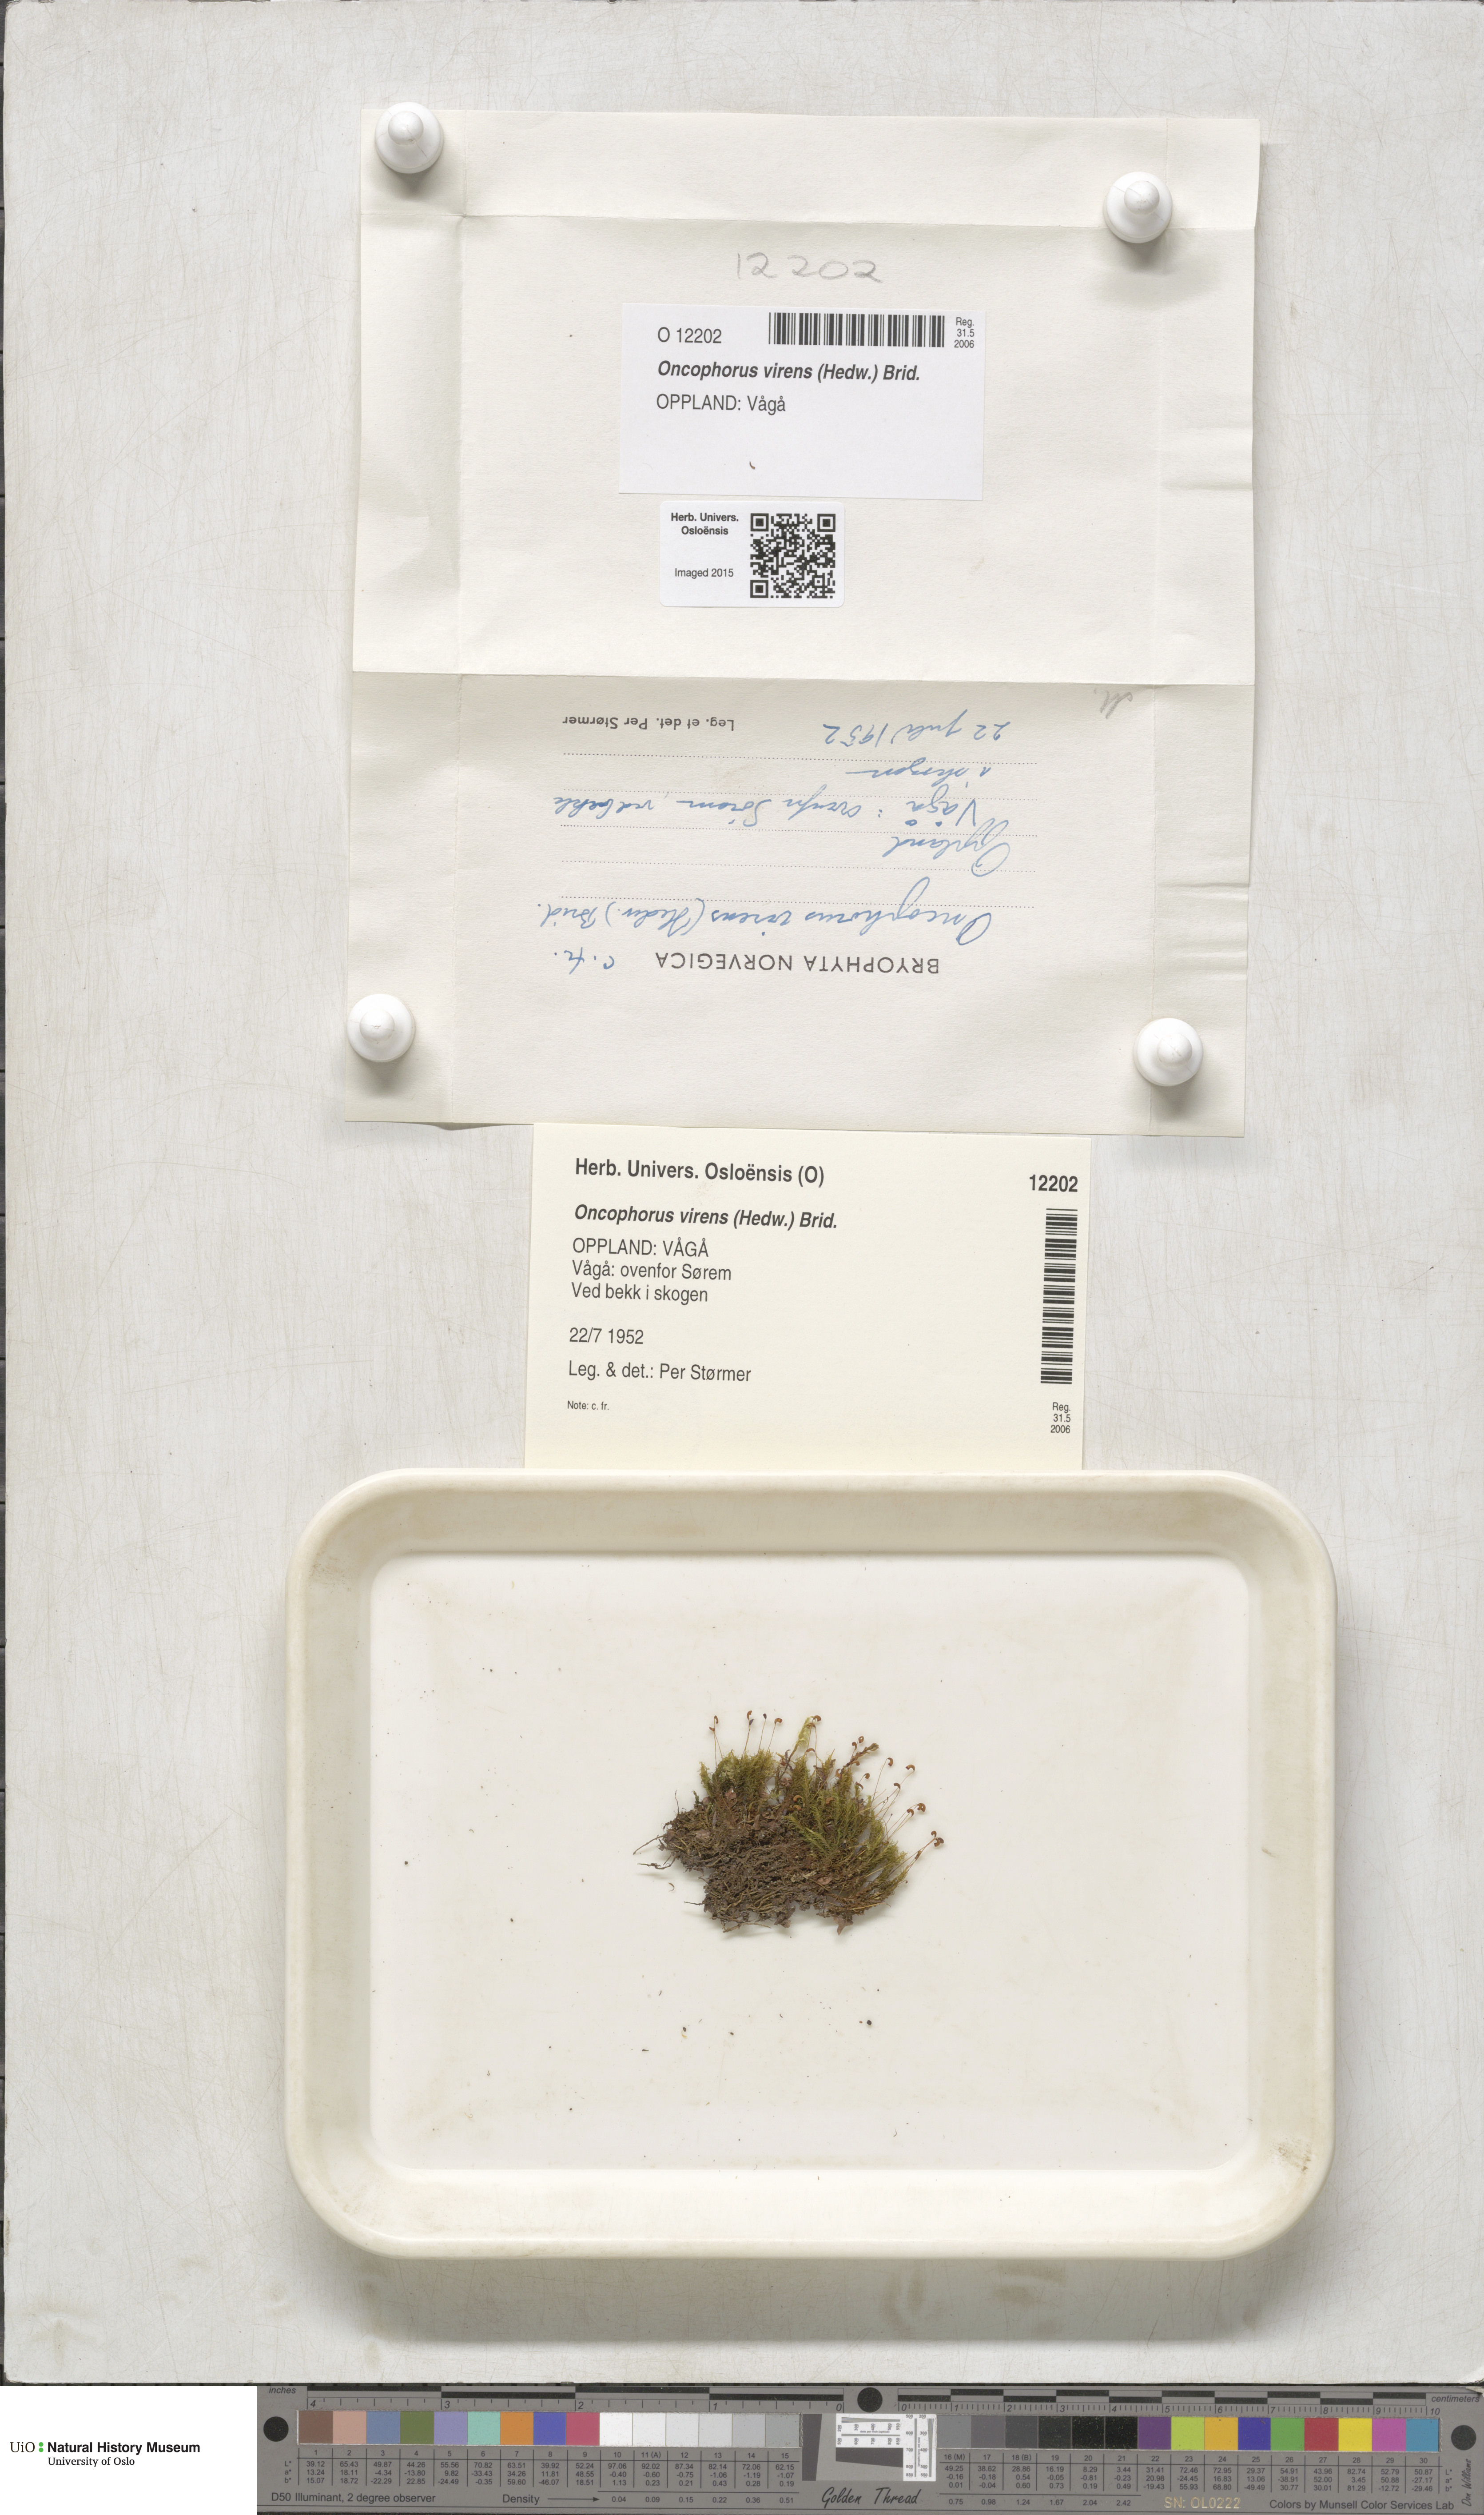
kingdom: Plantae
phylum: Bryophyta
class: Bryopsida
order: Dicranales
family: Rhabdoweisiaceae
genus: Oncophorus
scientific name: Oncophorus virens
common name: Green spur moss
